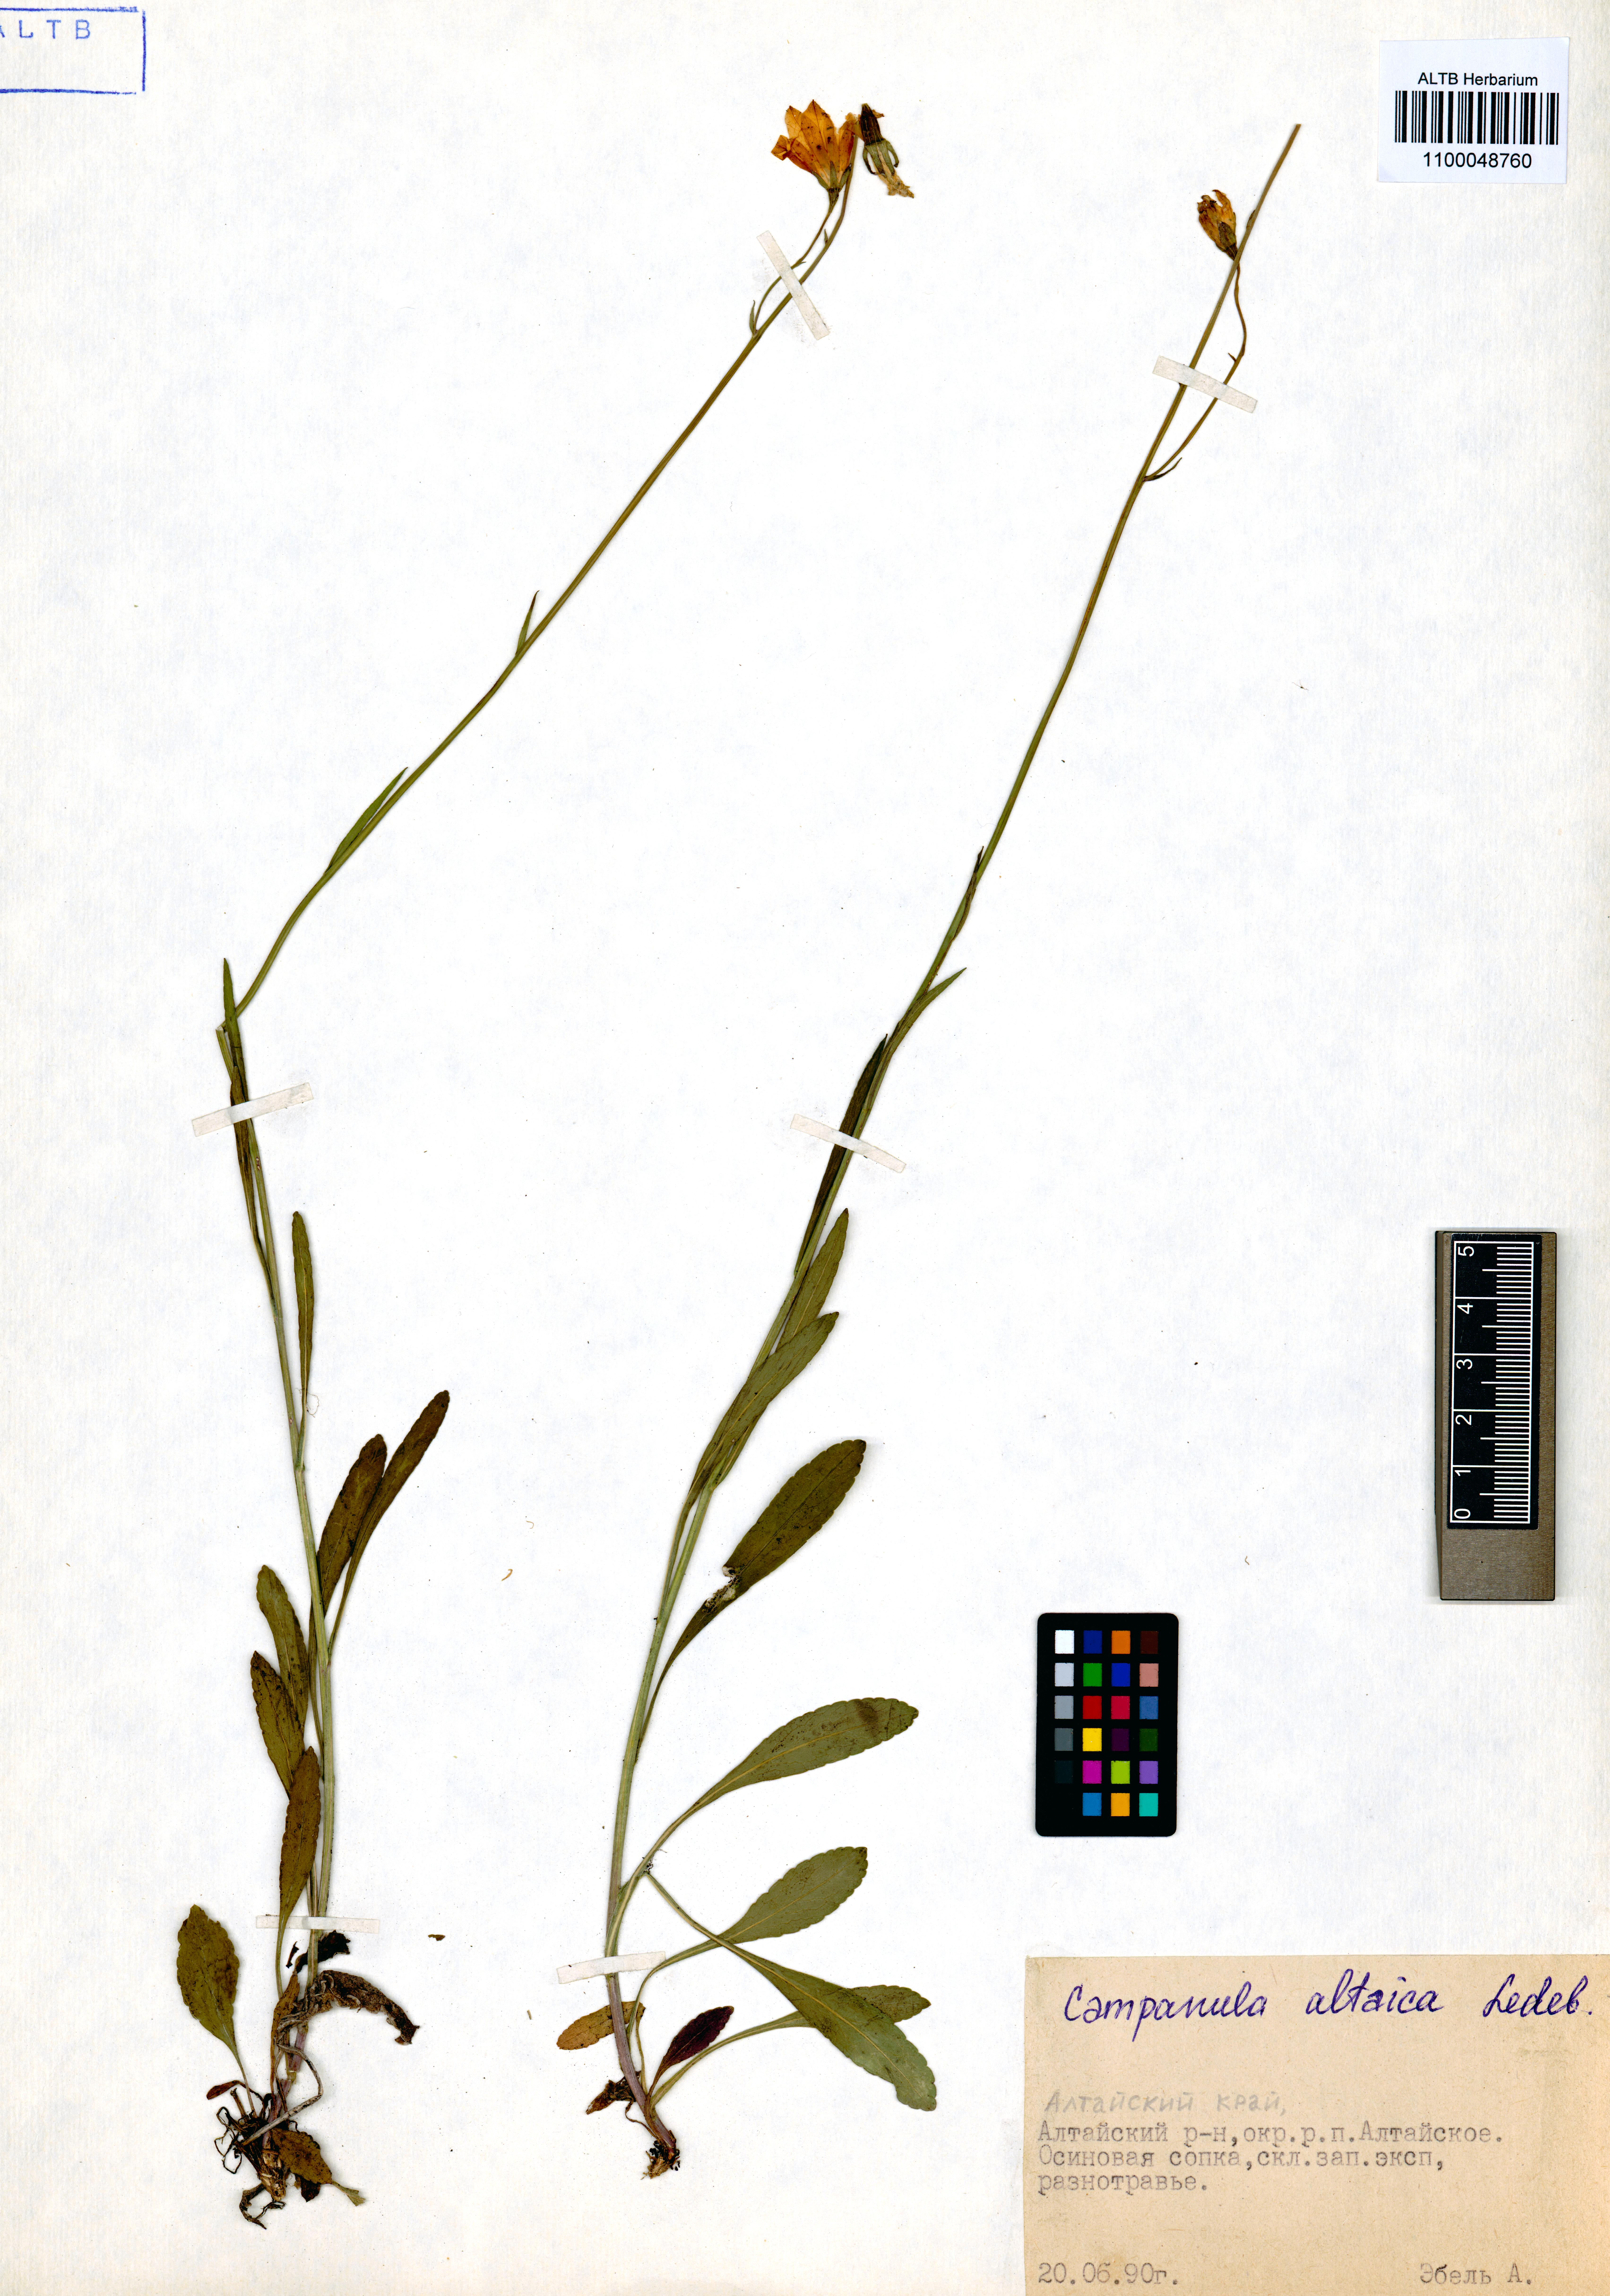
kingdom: Plantae
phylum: Tracheophyta
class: Magnoliopsida
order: Asterales
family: Campanulaceae
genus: Campanula
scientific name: Campanula stevenii
